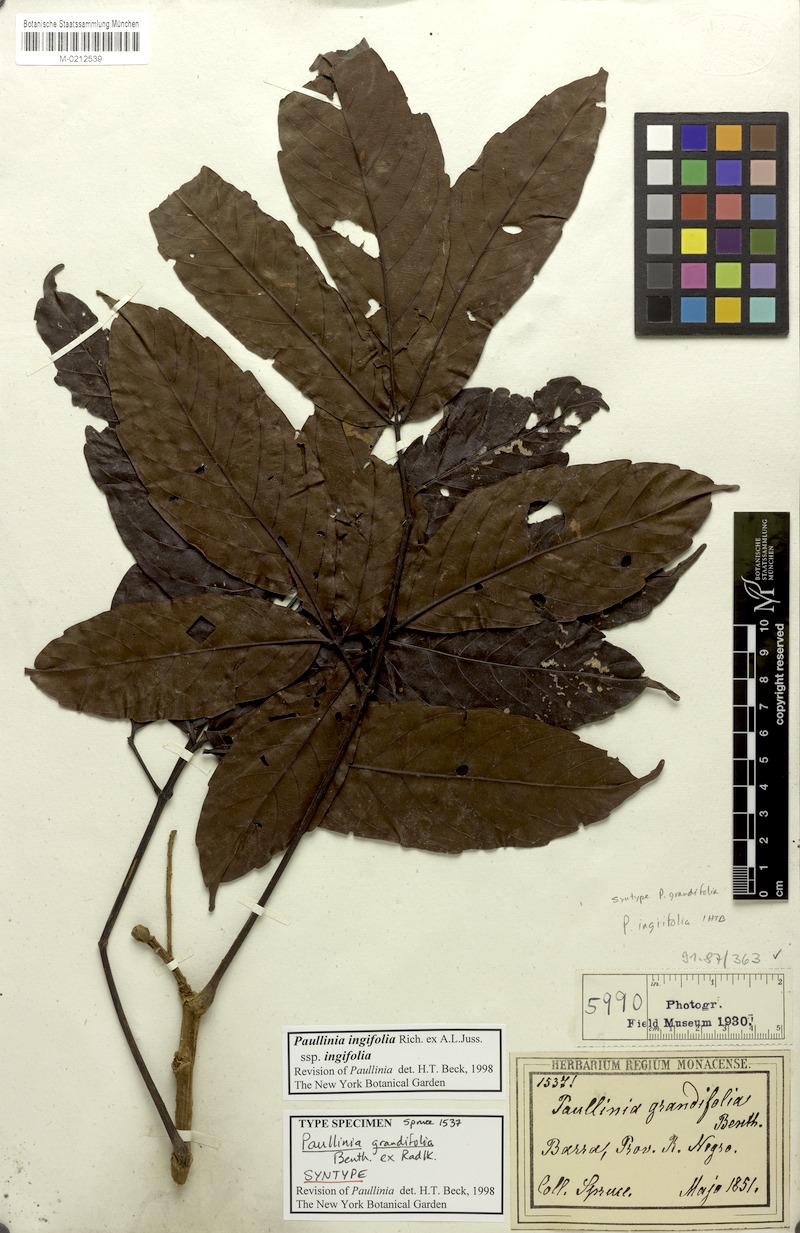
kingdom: Plantae
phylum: Tracheophyta
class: Magnoliopsida
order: Sapindales
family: Sapindaceae
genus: Paullinia
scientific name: Paullinia ingifolia
